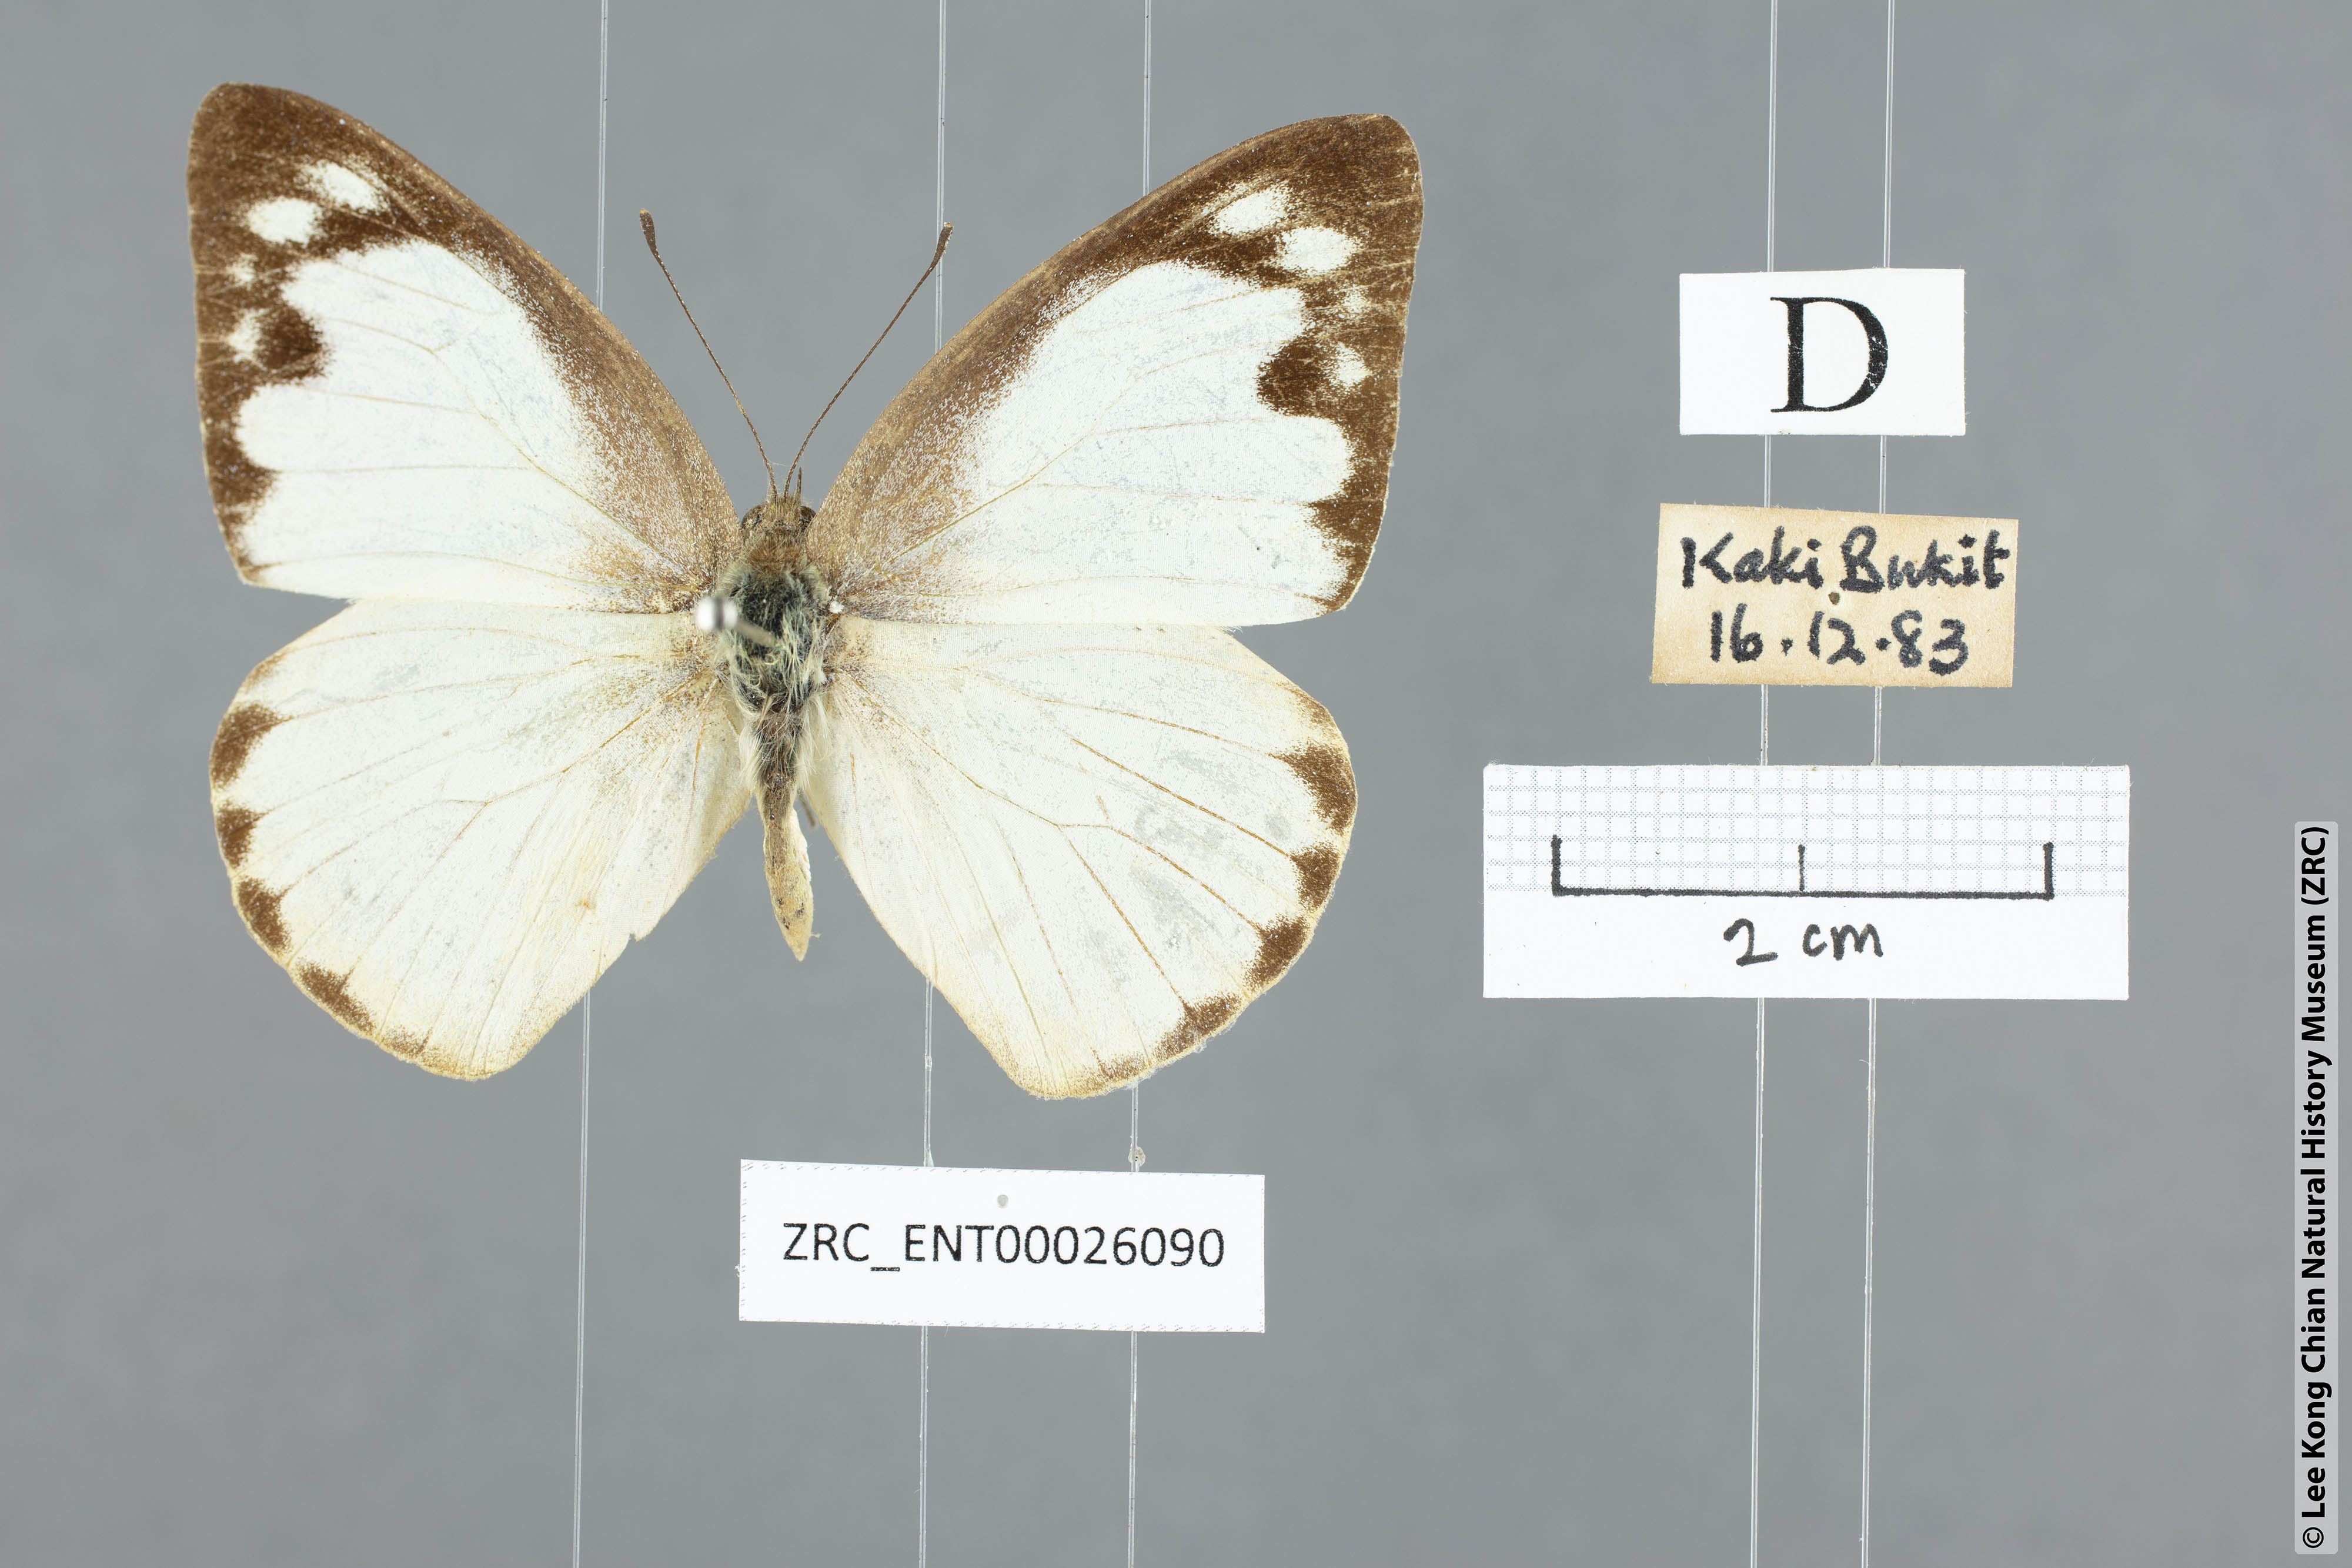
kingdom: Animalia
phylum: Arthropoda
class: Insecta
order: Lepidoptera
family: Pieridae
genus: Appias
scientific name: Appias albina
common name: Common albatross
